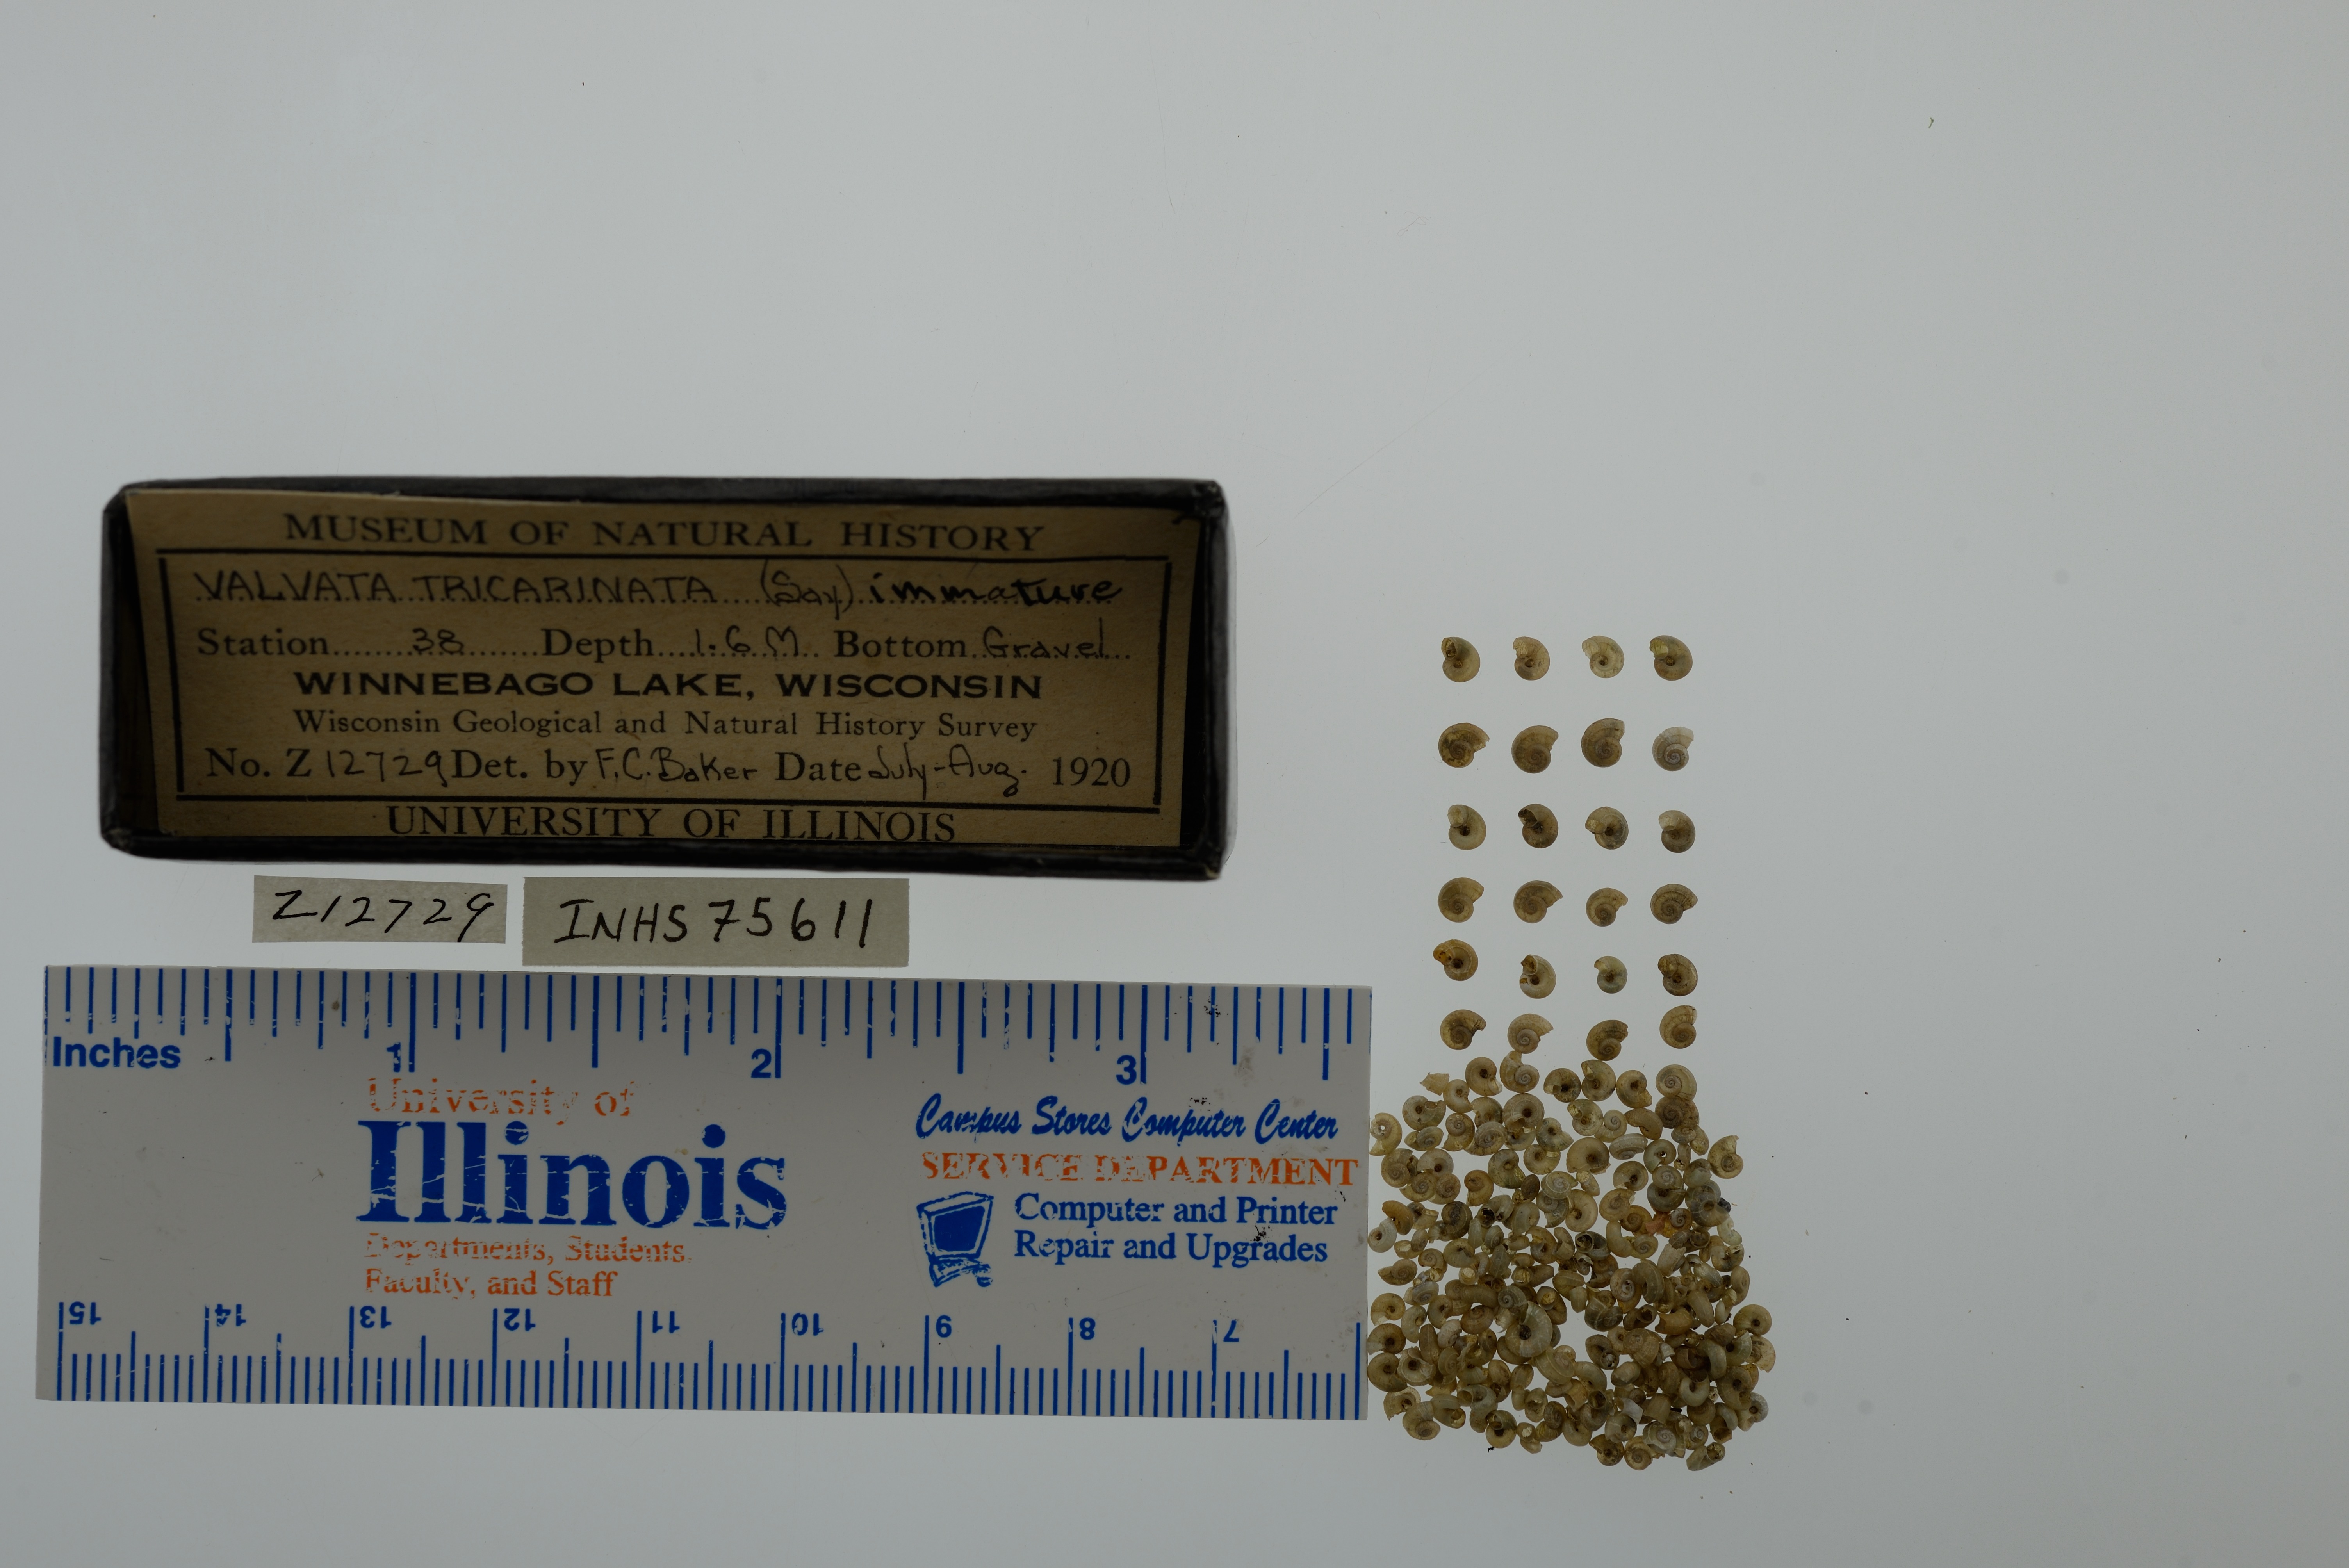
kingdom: Animalia
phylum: Mollusca
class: Gastropoda
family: Valvatidae
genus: Valvata
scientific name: Valvata tricarinata
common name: Three-ridge valvata
